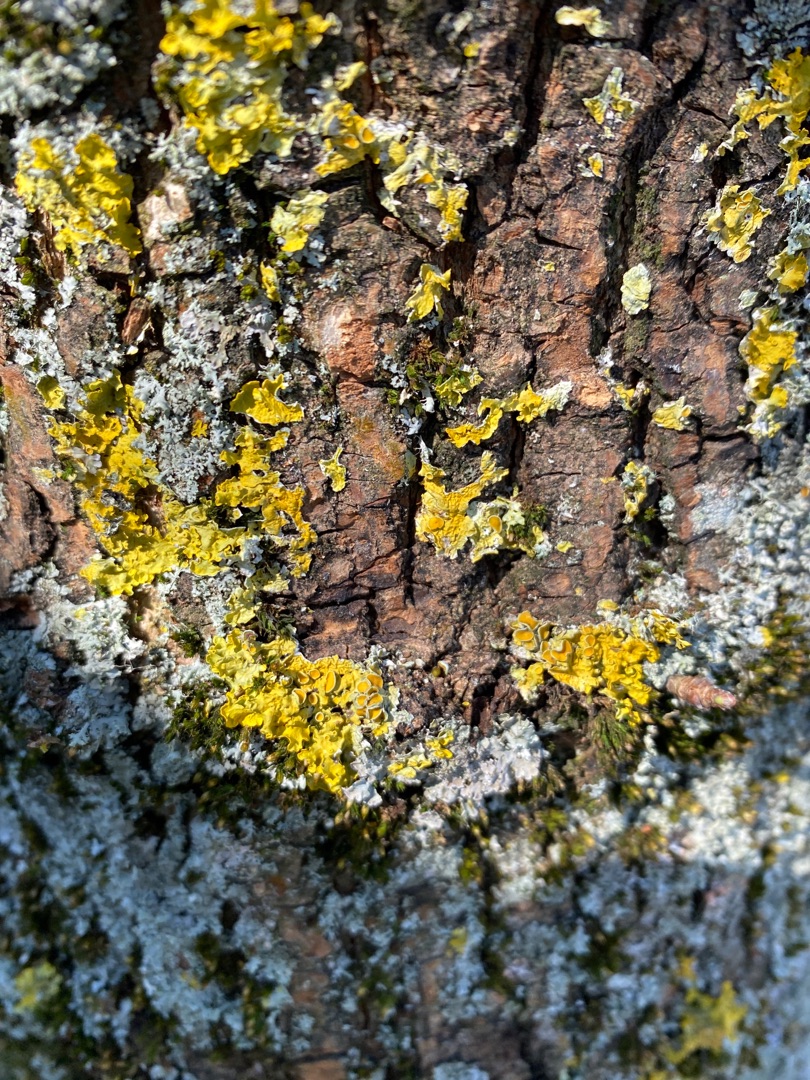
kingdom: Fungi
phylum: Ascomycota
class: Lecanoromycetes
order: Teloschistales
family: Teloschistaceae
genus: Xanthoria
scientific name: Xanthoria parietina
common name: Almindelig væggelav
